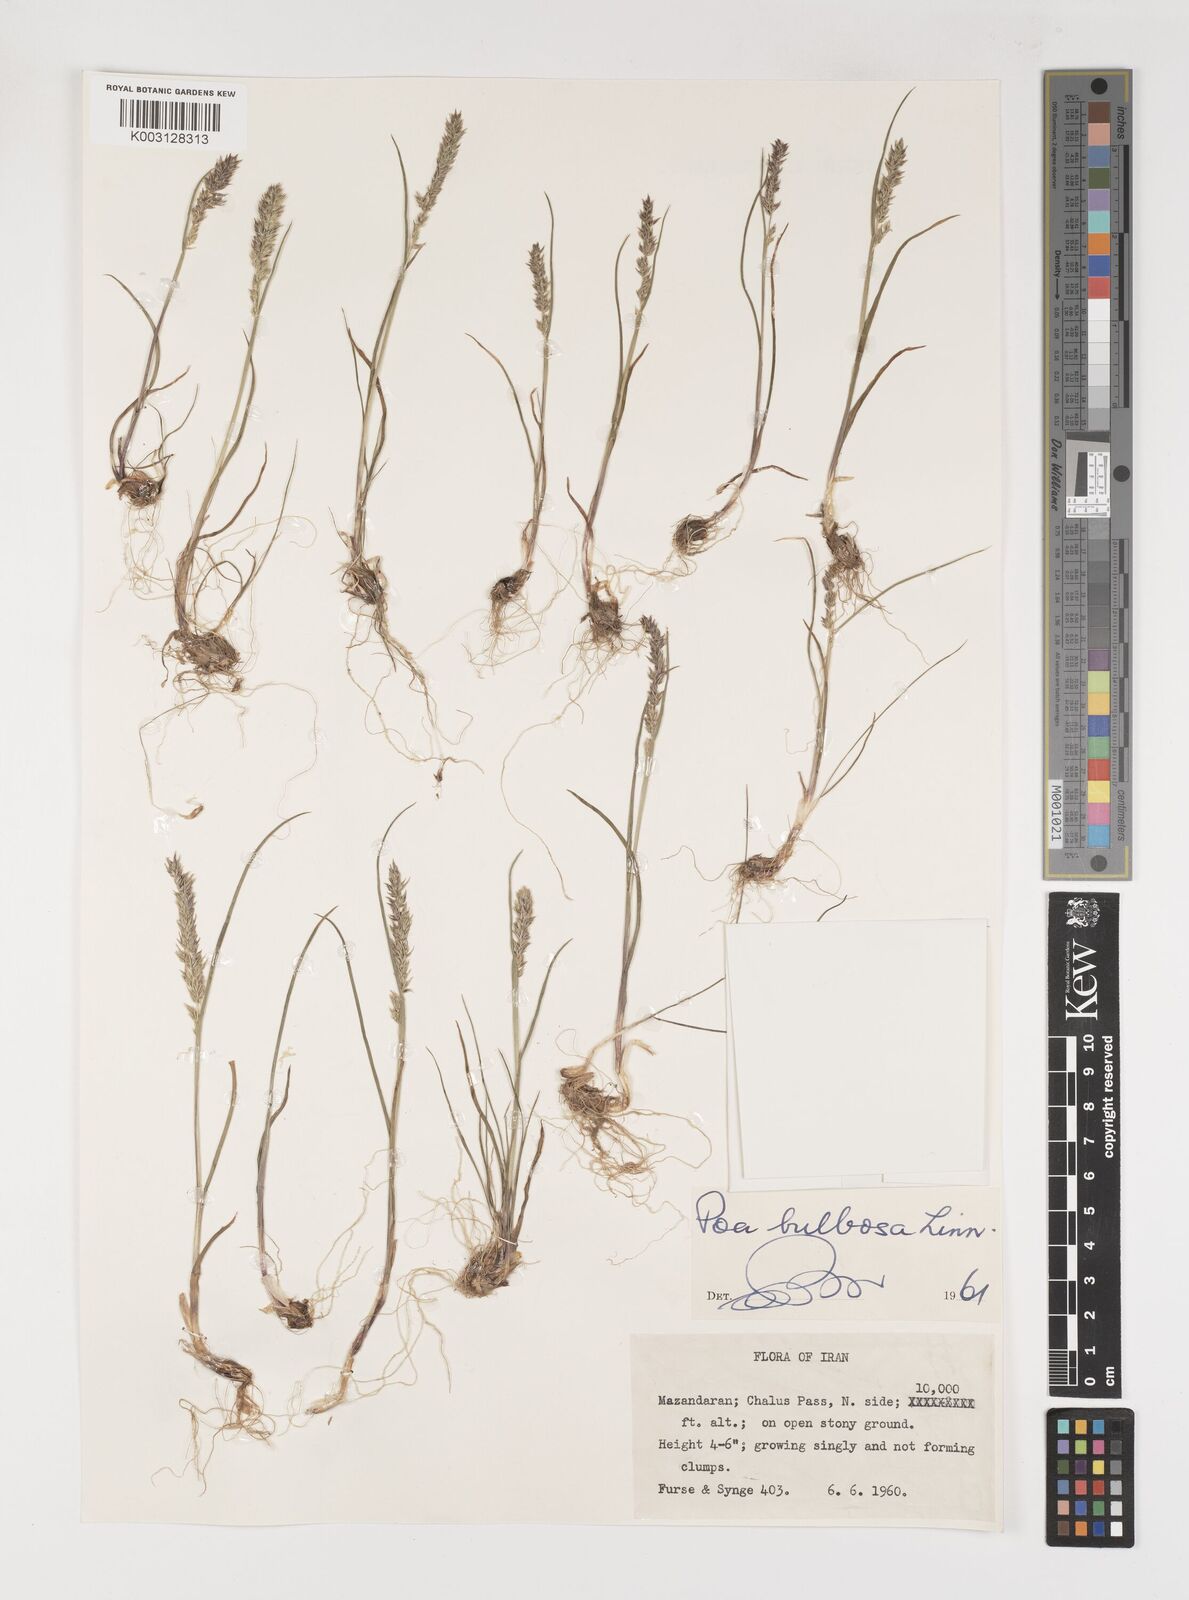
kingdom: Plantae
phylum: Tracheophyta
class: Liliopsida
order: Poales
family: Poaceae
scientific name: Poaceae
